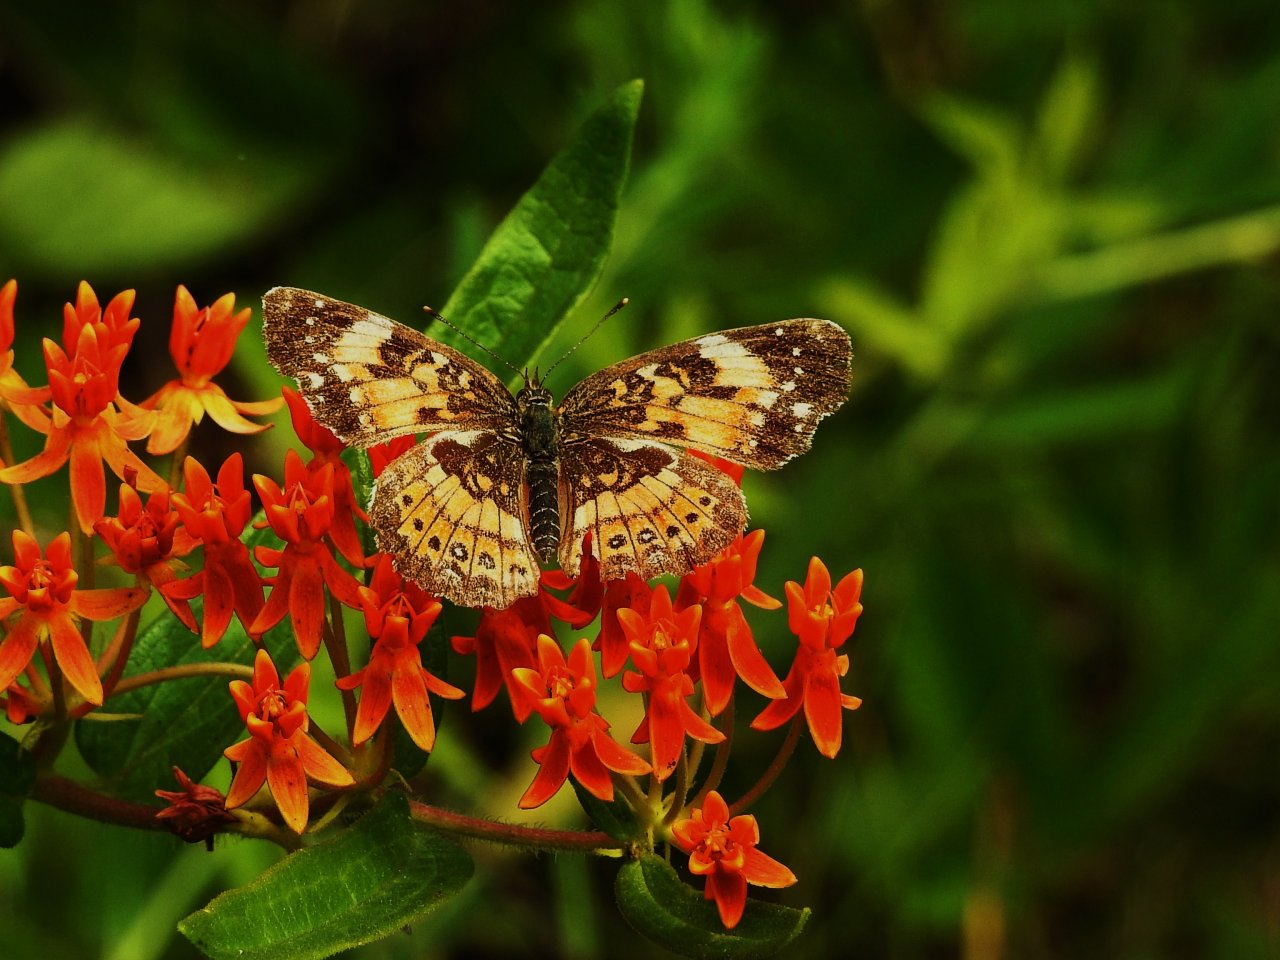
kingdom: Animalia
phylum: Arthropoda
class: Insecta
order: Lepidoptera
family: Nymphalidae
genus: Chlosyne
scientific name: Chlosyne nycteis
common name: Silvery Checkerspot
